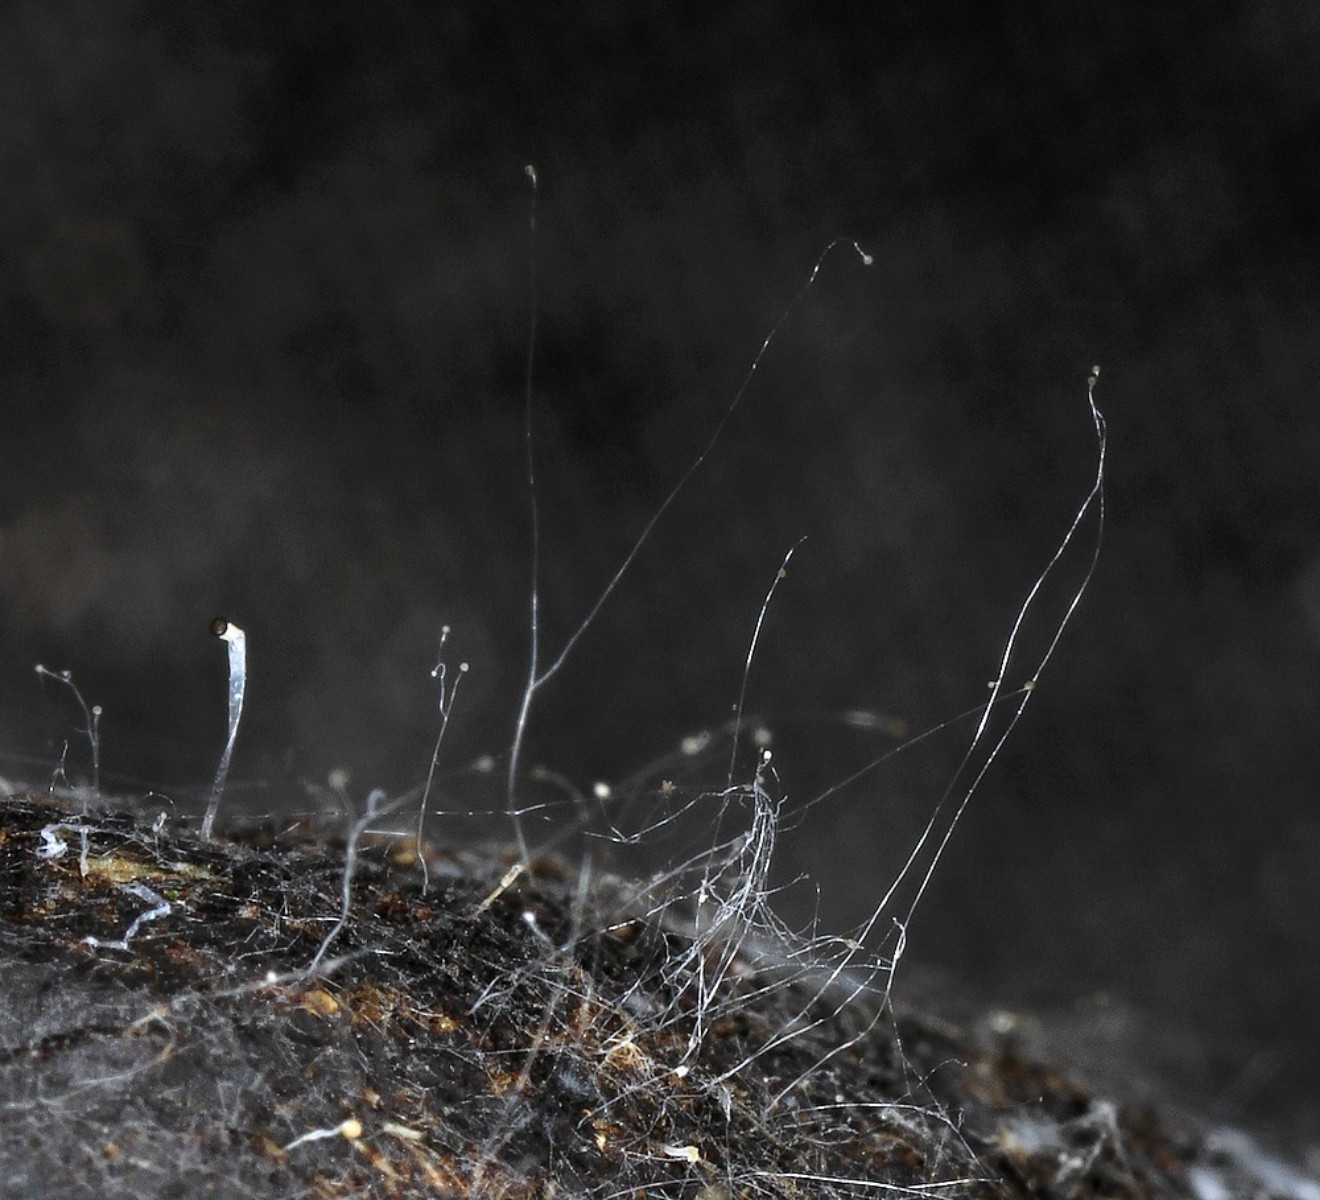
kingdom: Fungi
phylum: Mucoromycota
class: Mucoromycetes
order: Mucorales
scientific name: Mucorales
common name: mugordenen
